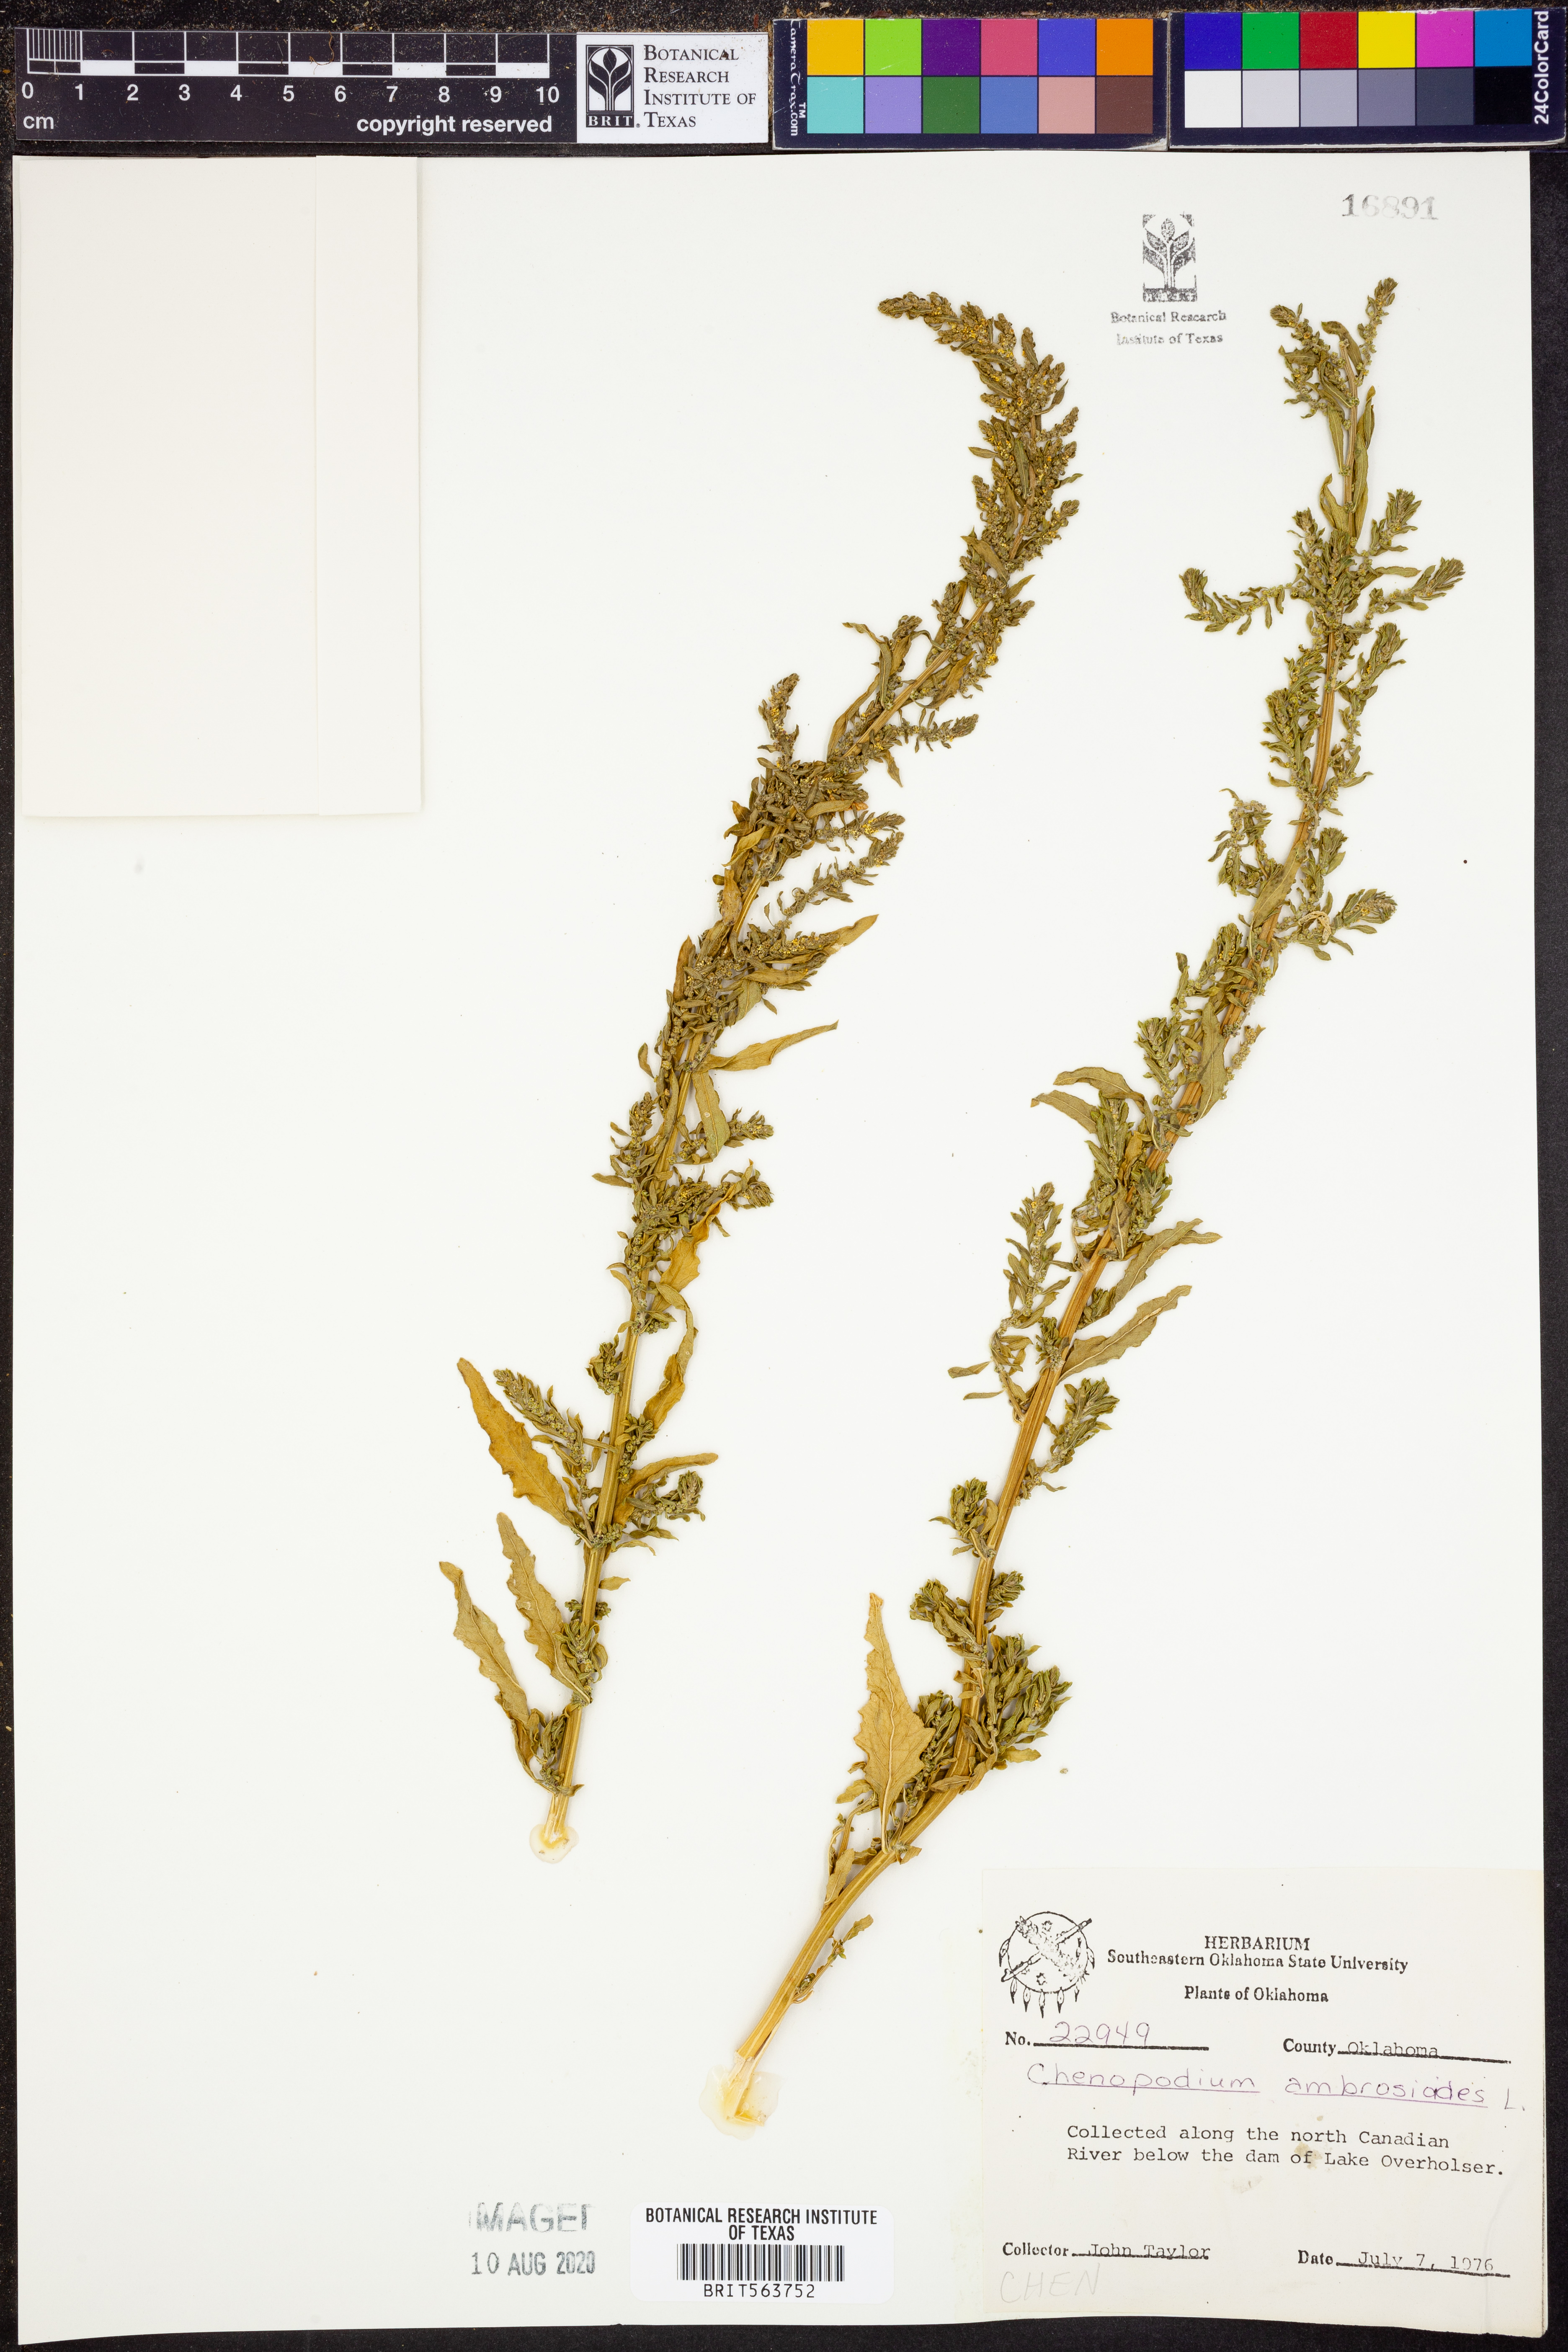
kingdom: Plantae
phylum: Tracheophyta
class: Magnoliopsida
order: Caryophyllales
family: Amaranthaceae
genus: Dysphania
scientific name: Dysphania ambrosioides
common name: Wormseed
